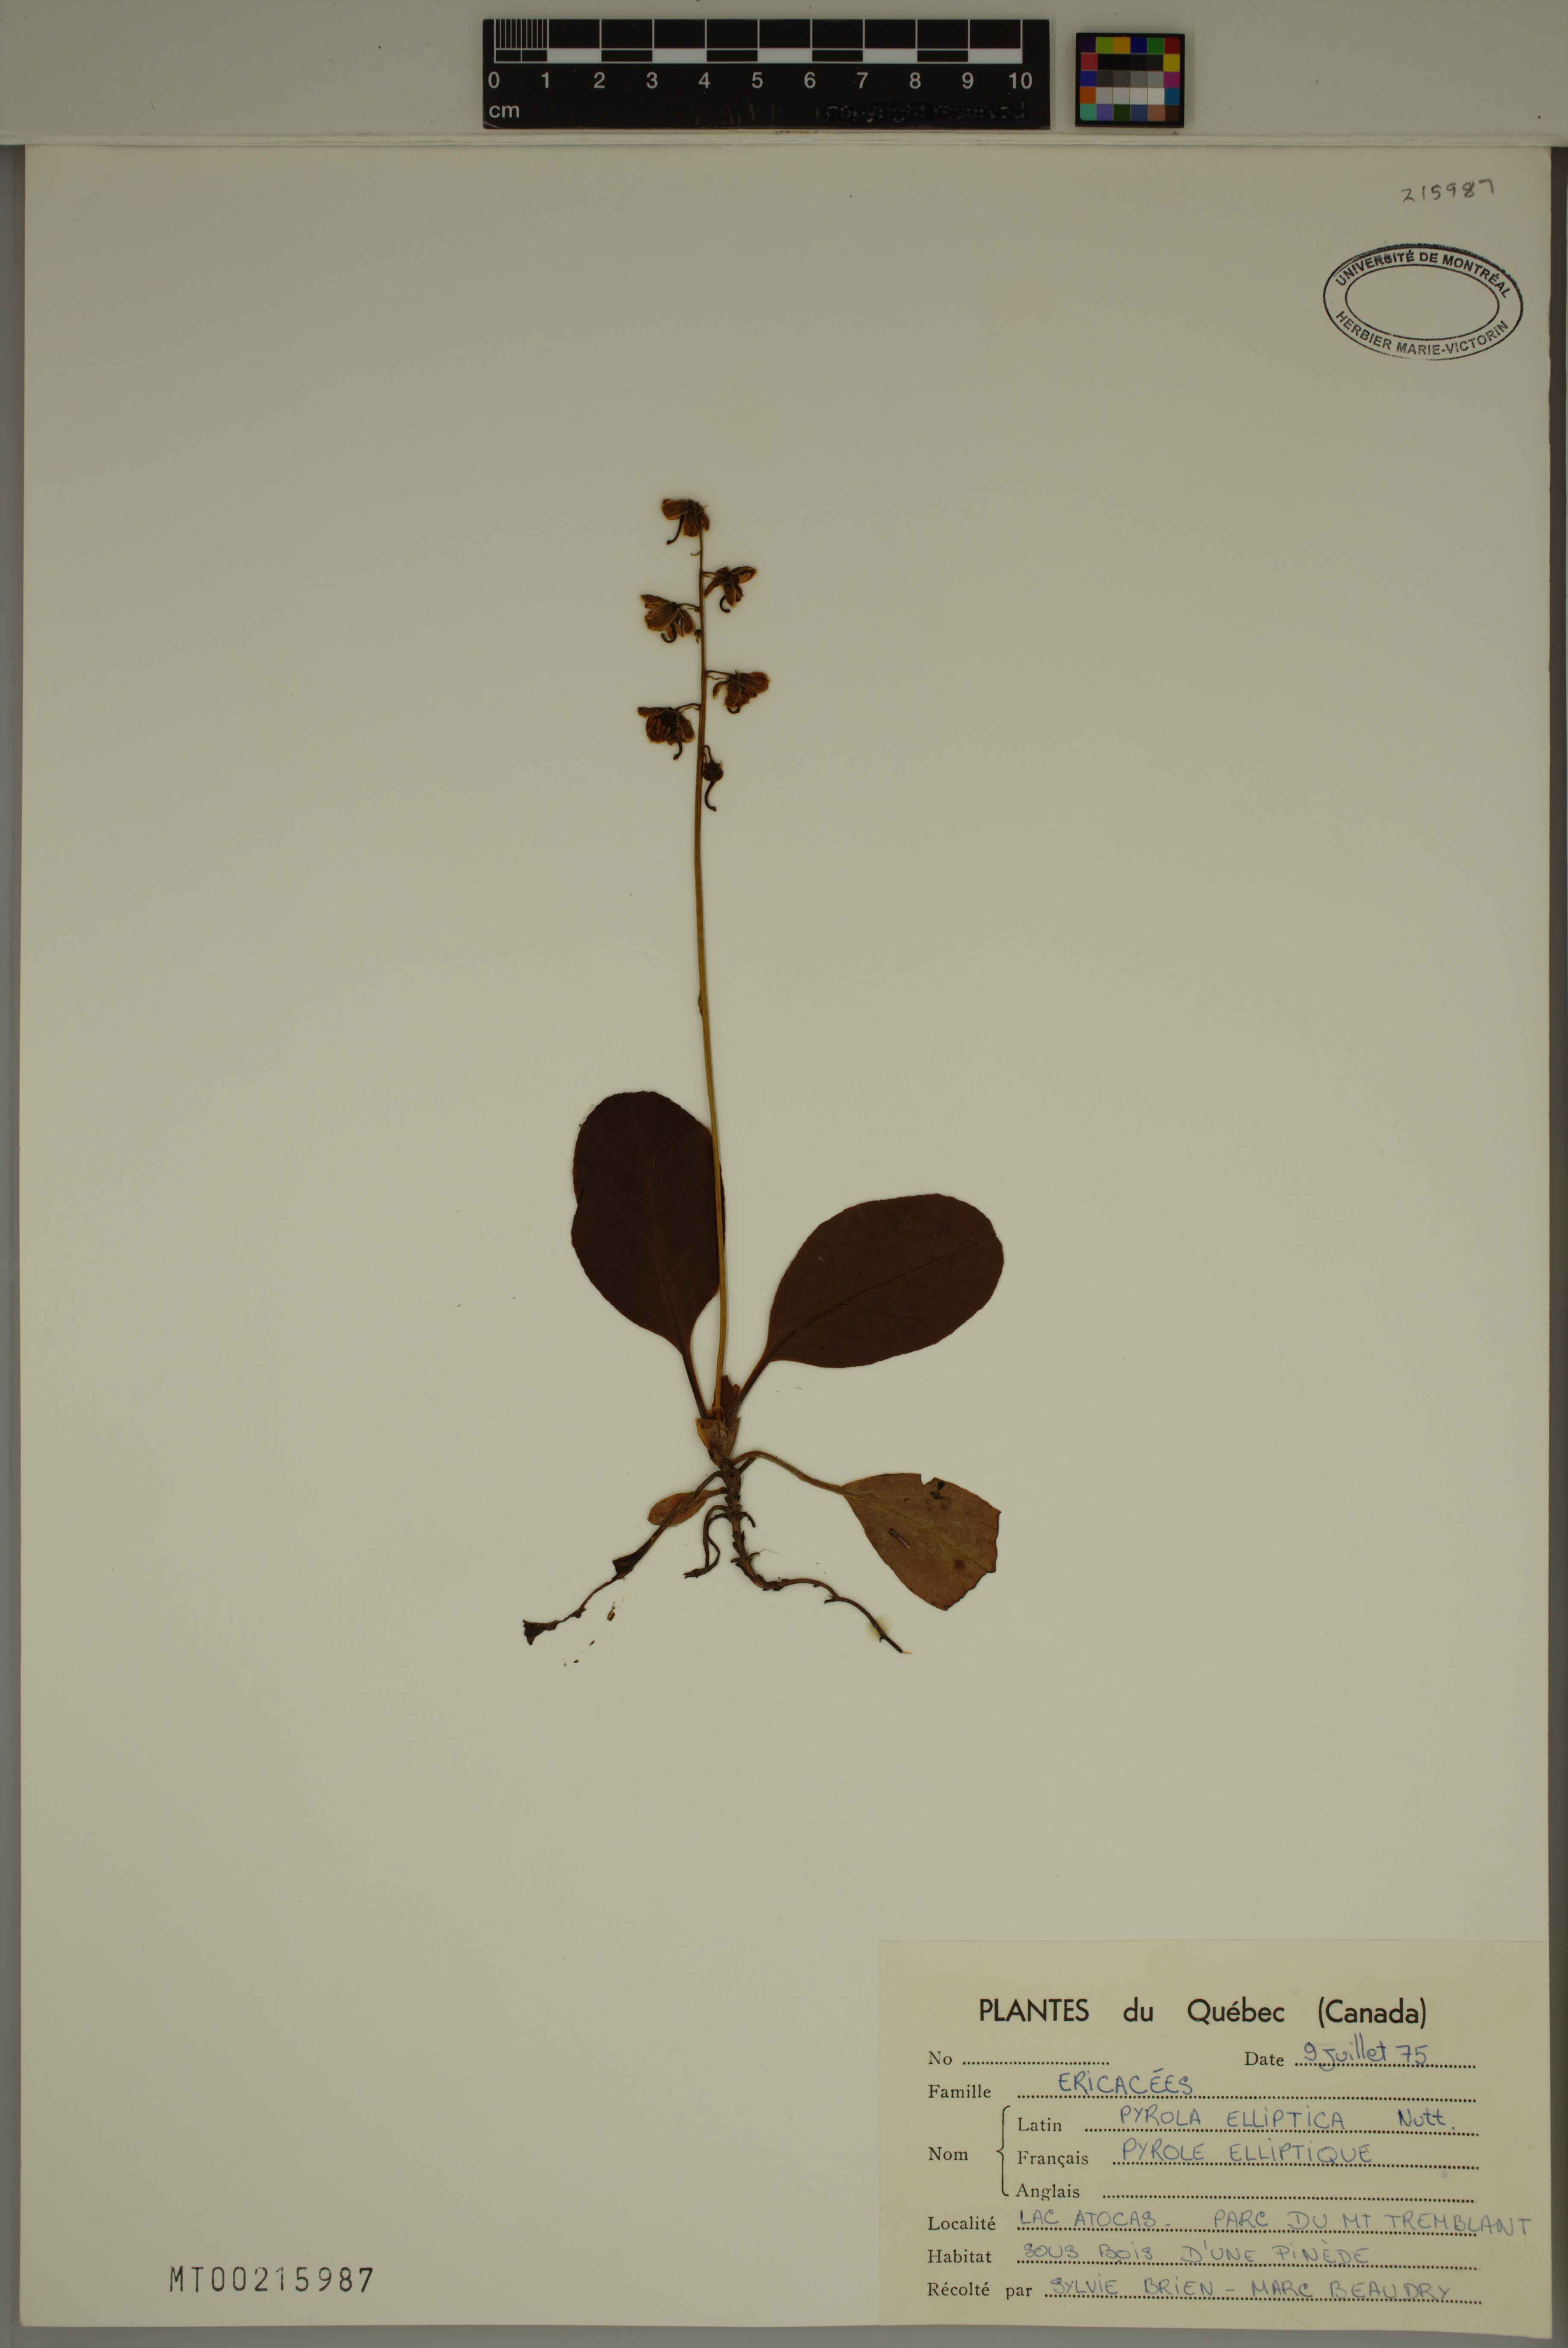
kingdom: Plantae
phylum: Tracheophyta
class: Magnoliopsida
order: Ericales
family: Ericaceae
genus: Pyrola
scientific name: Pyrola elliptica
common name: Shinleaf
